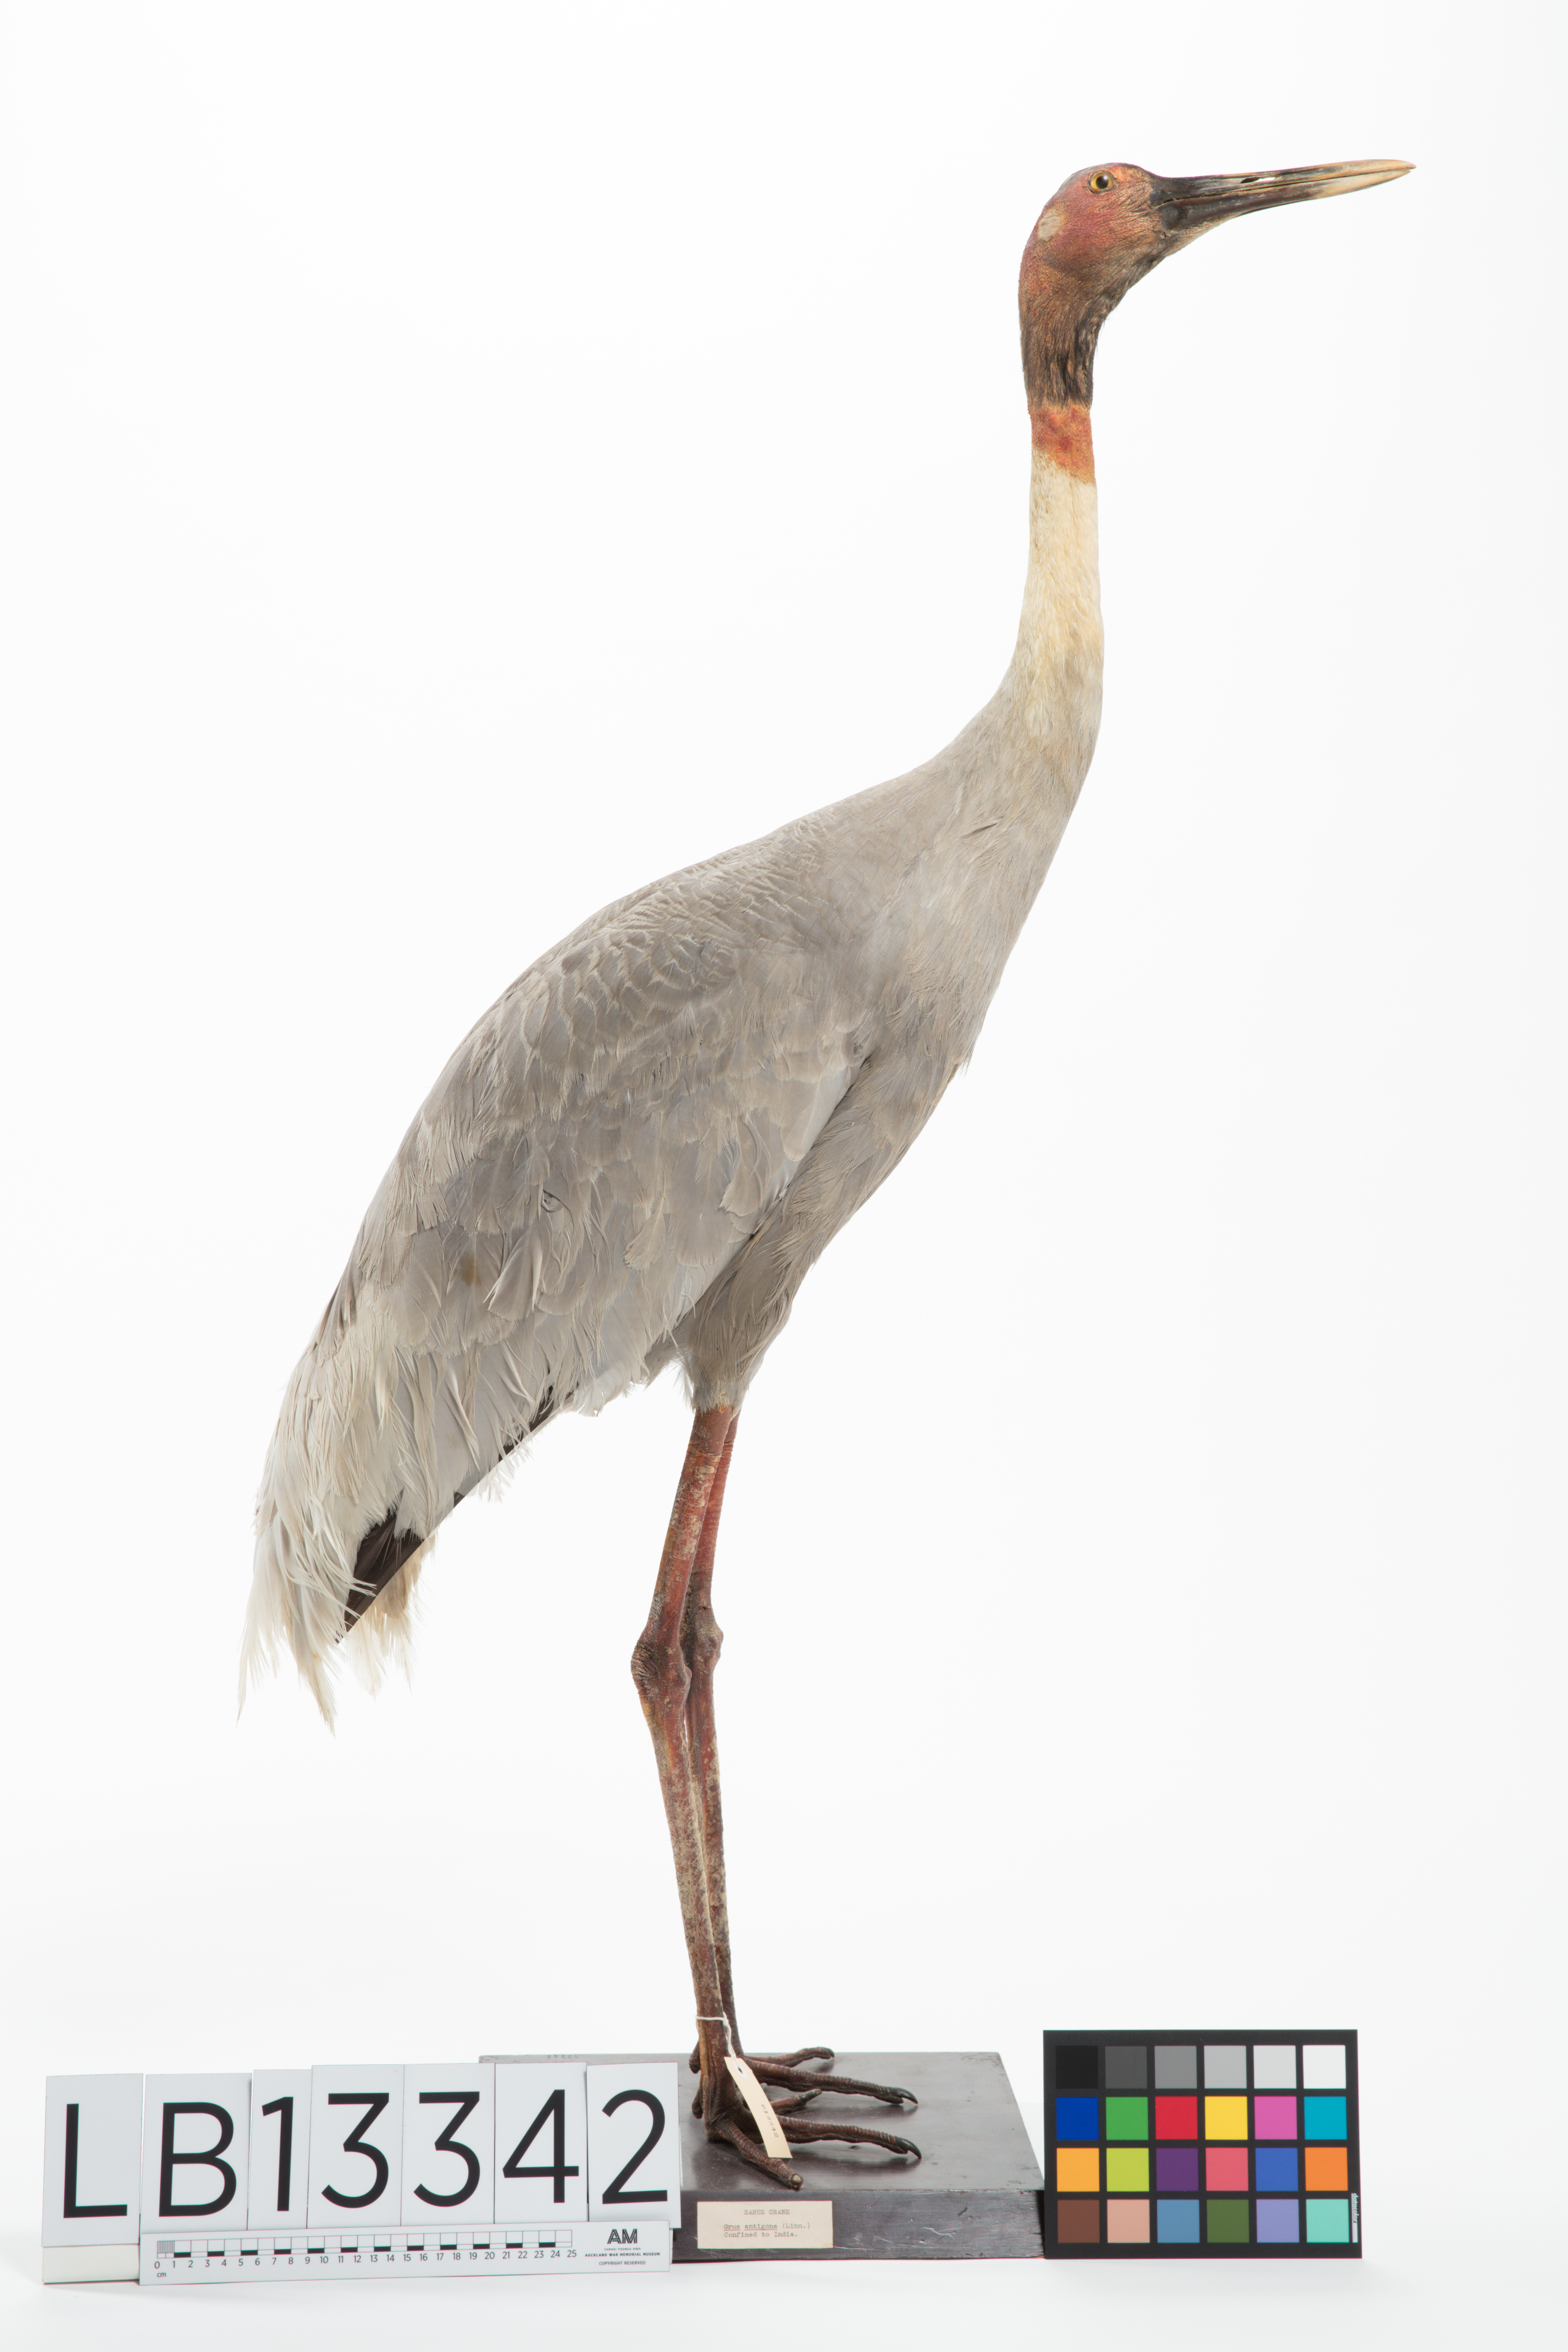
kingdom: Animalia
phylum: Chordata
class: Aves
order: Gruiformes
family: Gruidae
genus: Grus
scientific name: Grus antigone
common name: Sarus crane
